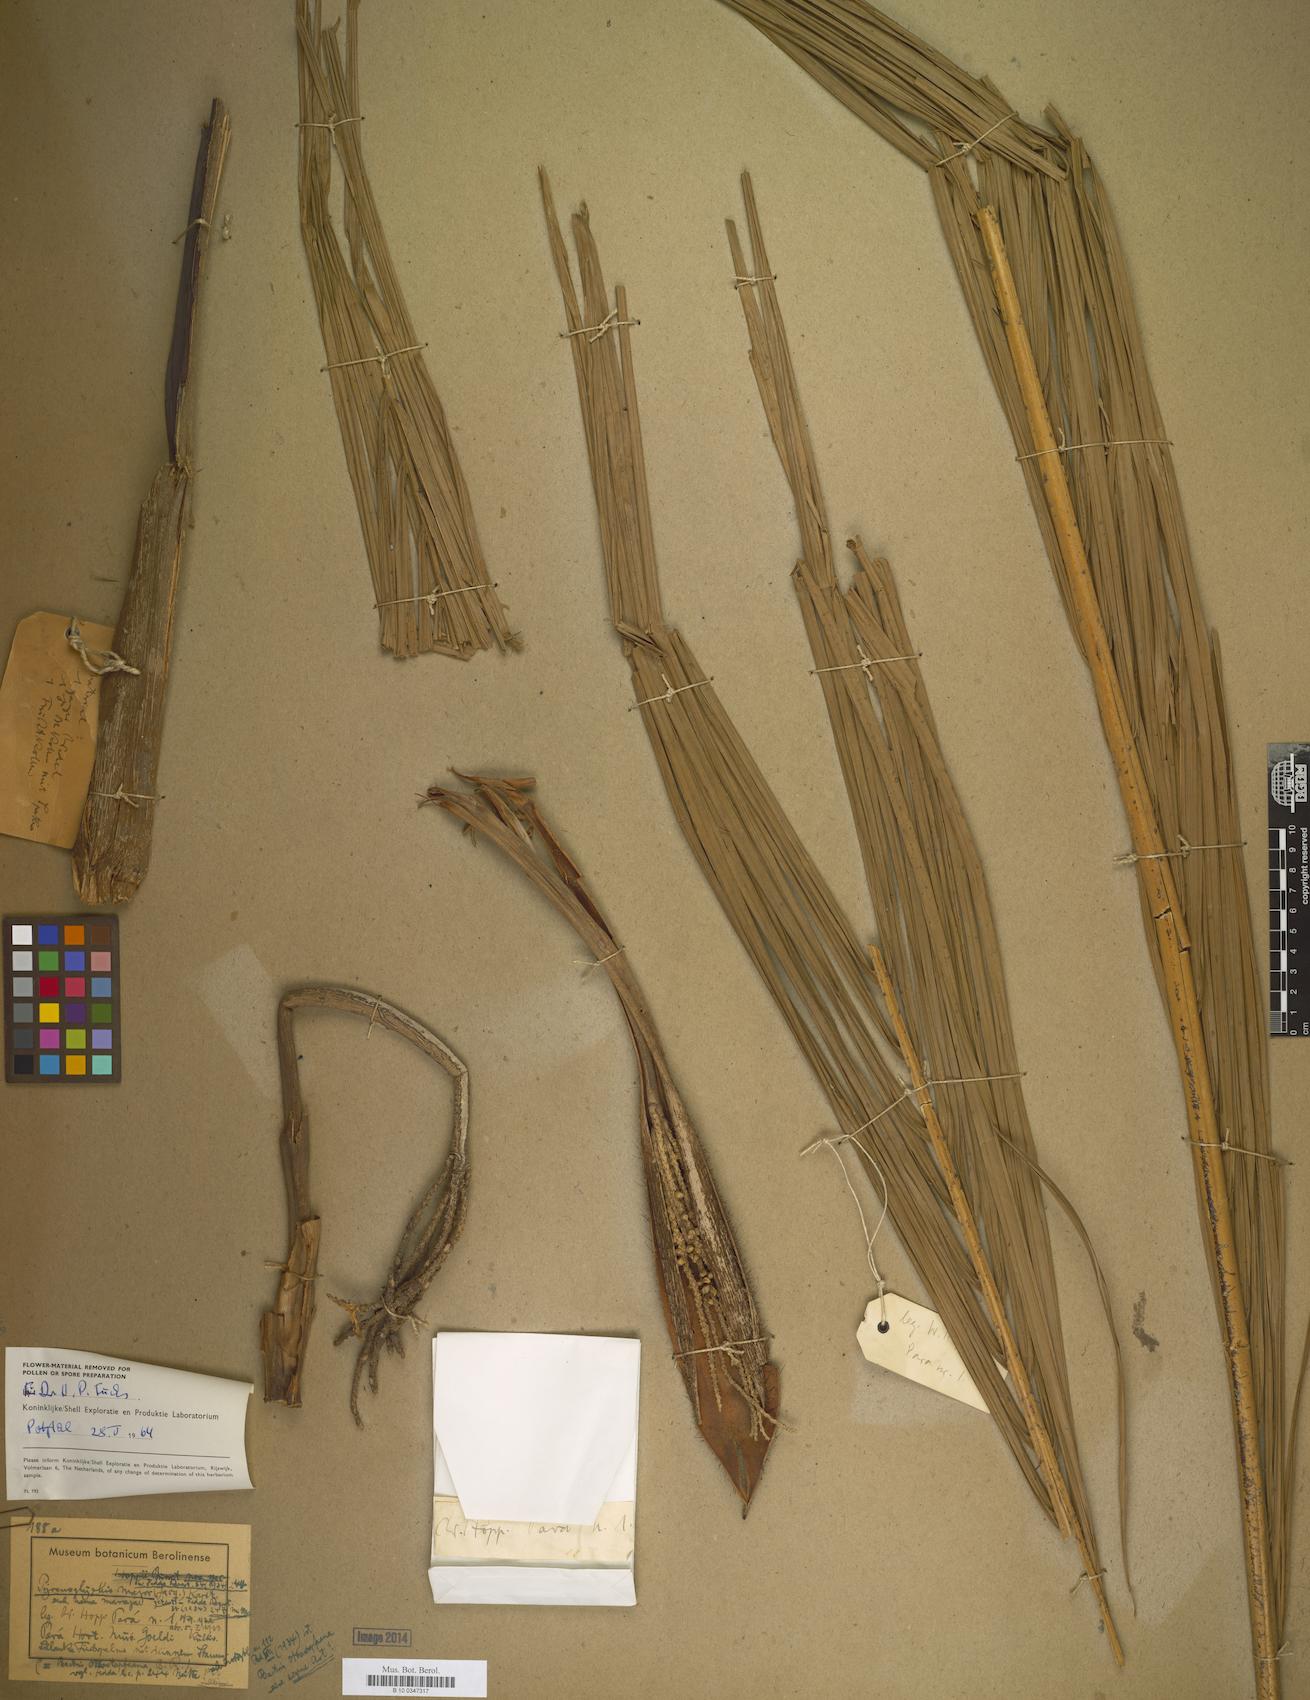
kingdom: Plantae
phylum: Tracheophyta
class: Liliopsida
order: Arecales
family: Arecaceae
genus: Bactris
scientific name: Bactris major
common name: Beach palm
